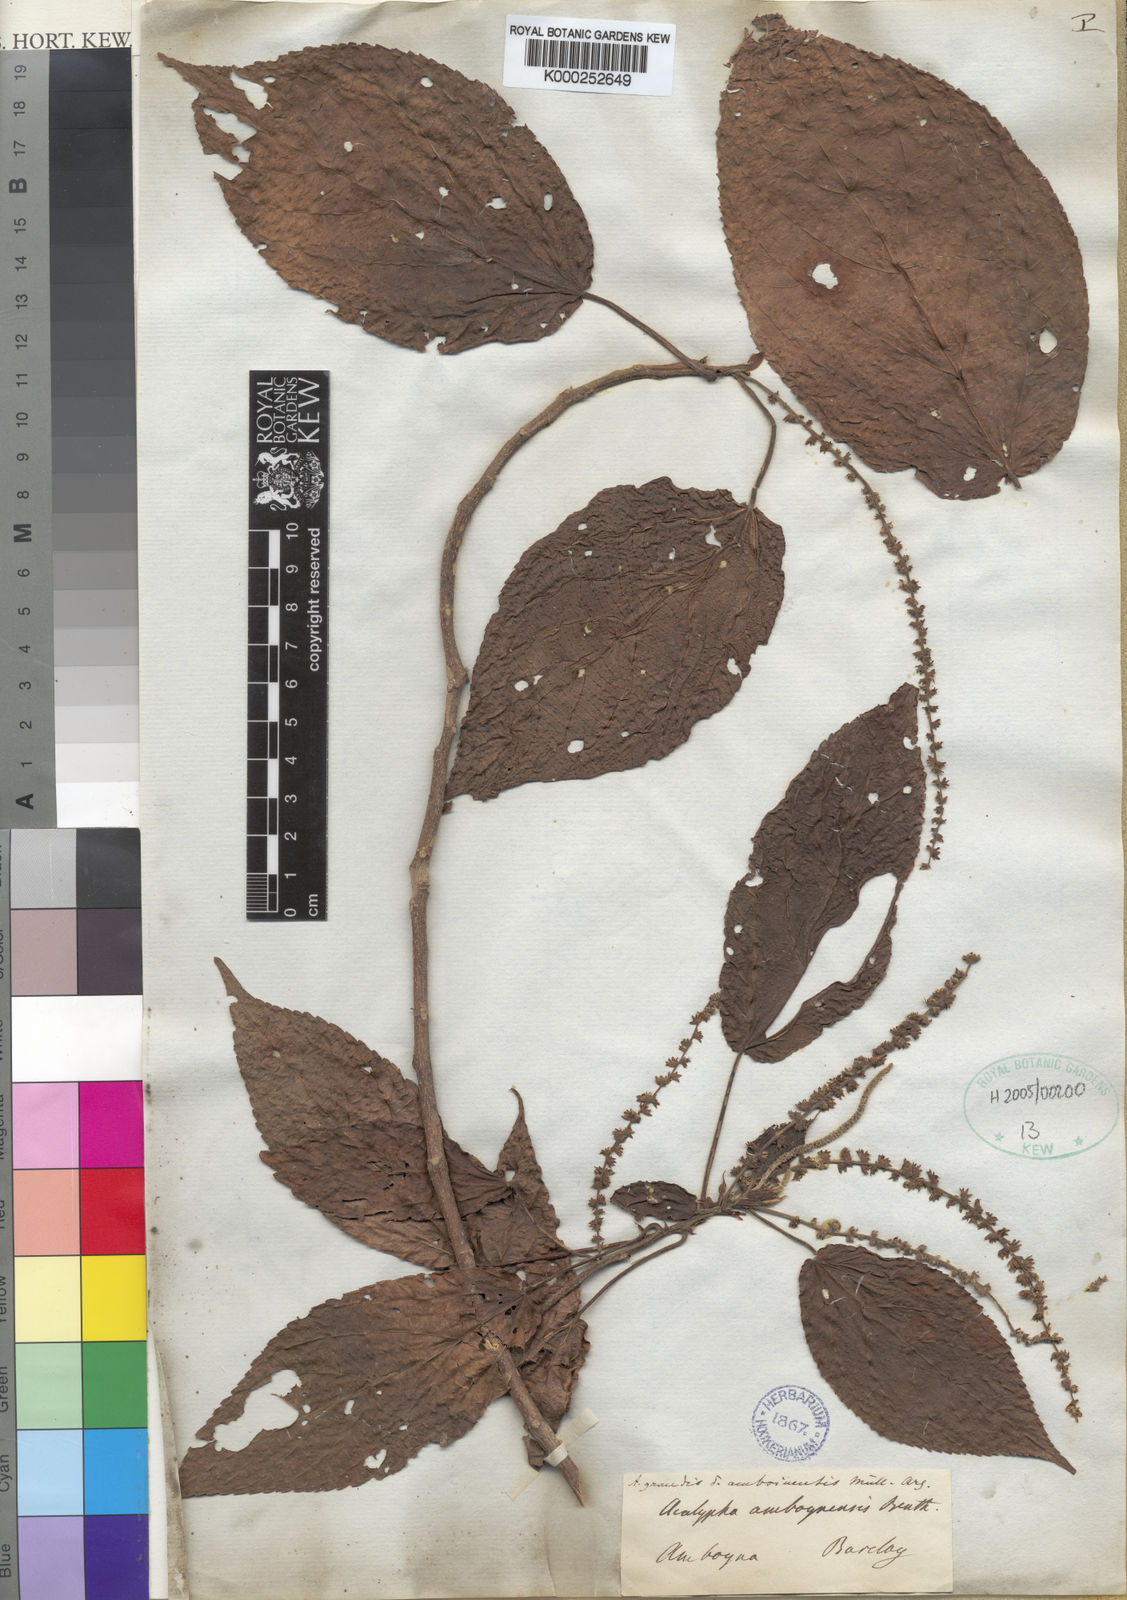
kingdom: Plantae
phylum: Tracheophyta
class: Magnoliopsida
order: Malpighiales
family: Euphorbiaceae
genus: Acalypha
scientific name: Acalypha amentacea
